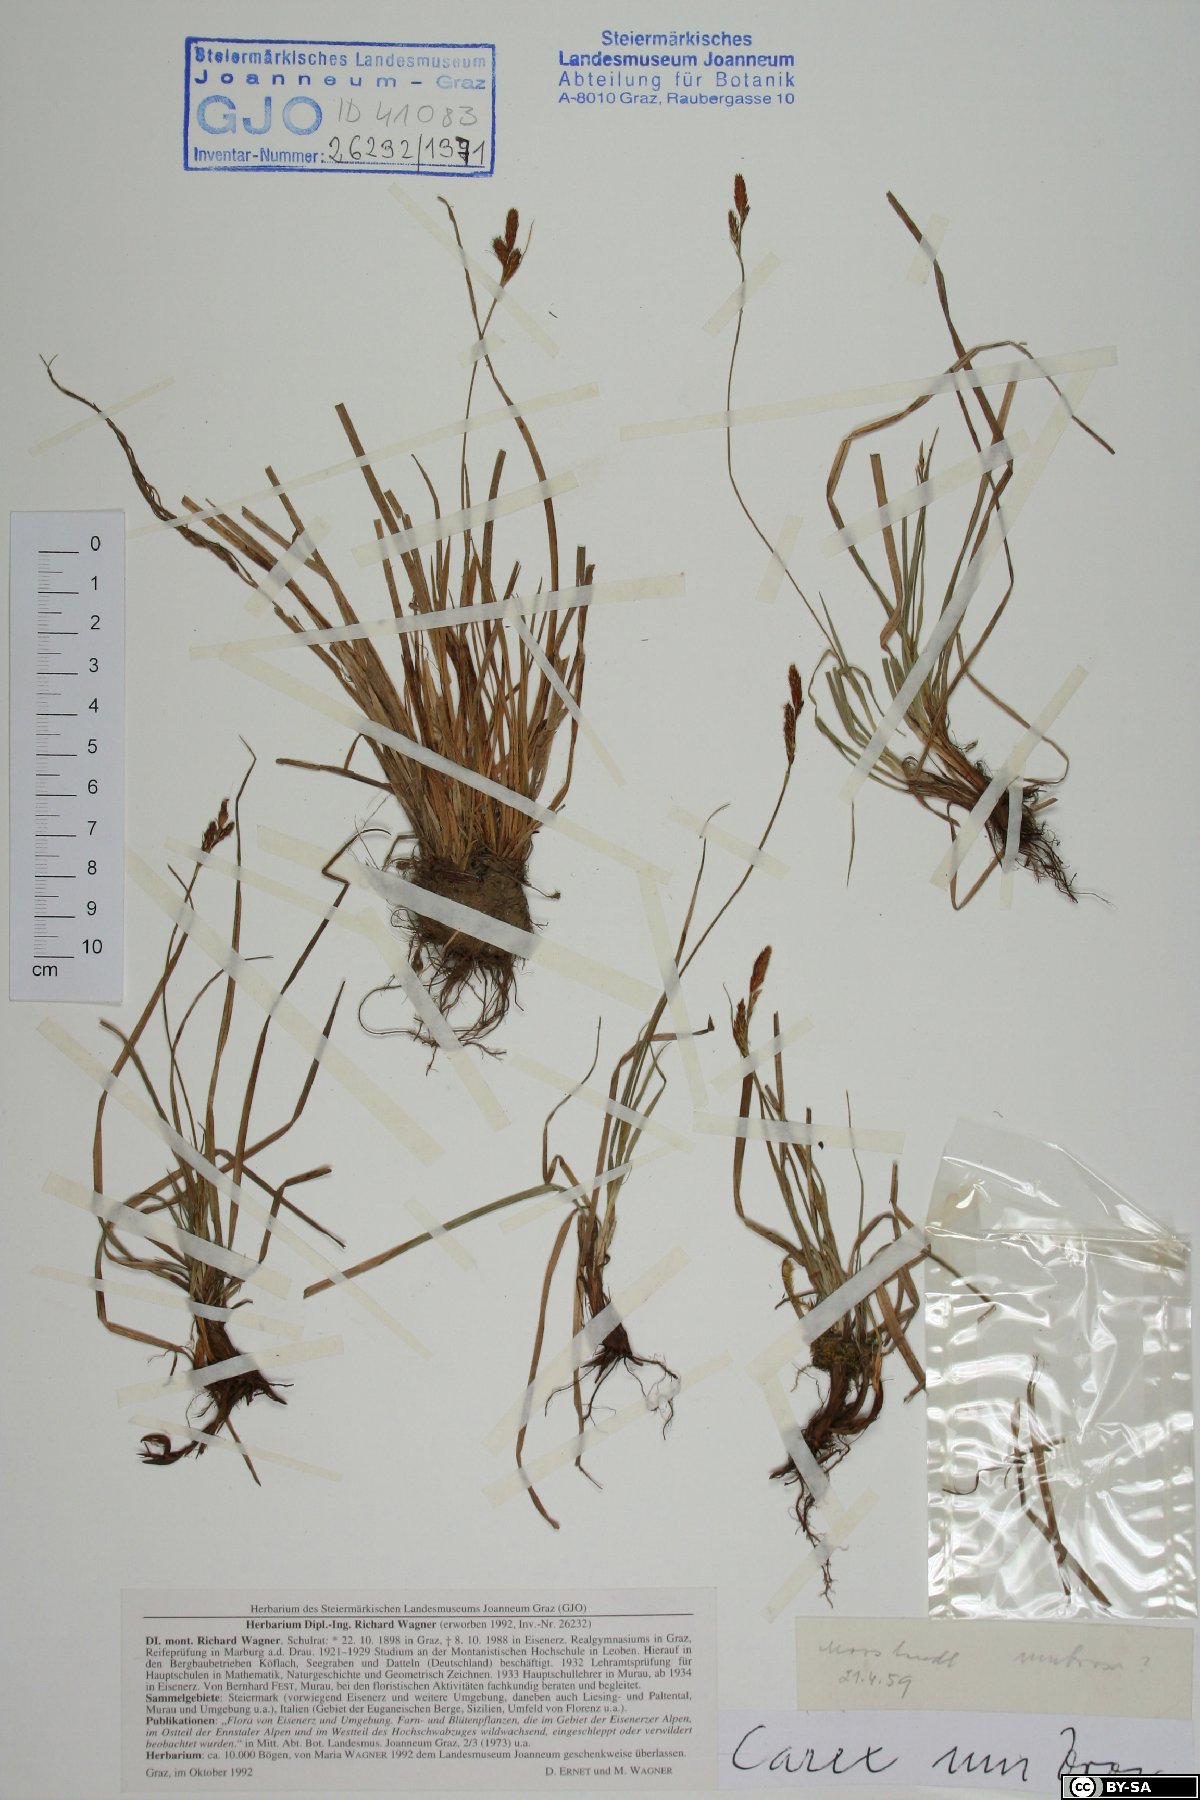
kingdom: Plantae
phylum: Tracheophyta
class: Liliopsida
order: Poales
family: Cyperaceae
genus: Carex
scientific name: Carex umbrosa
